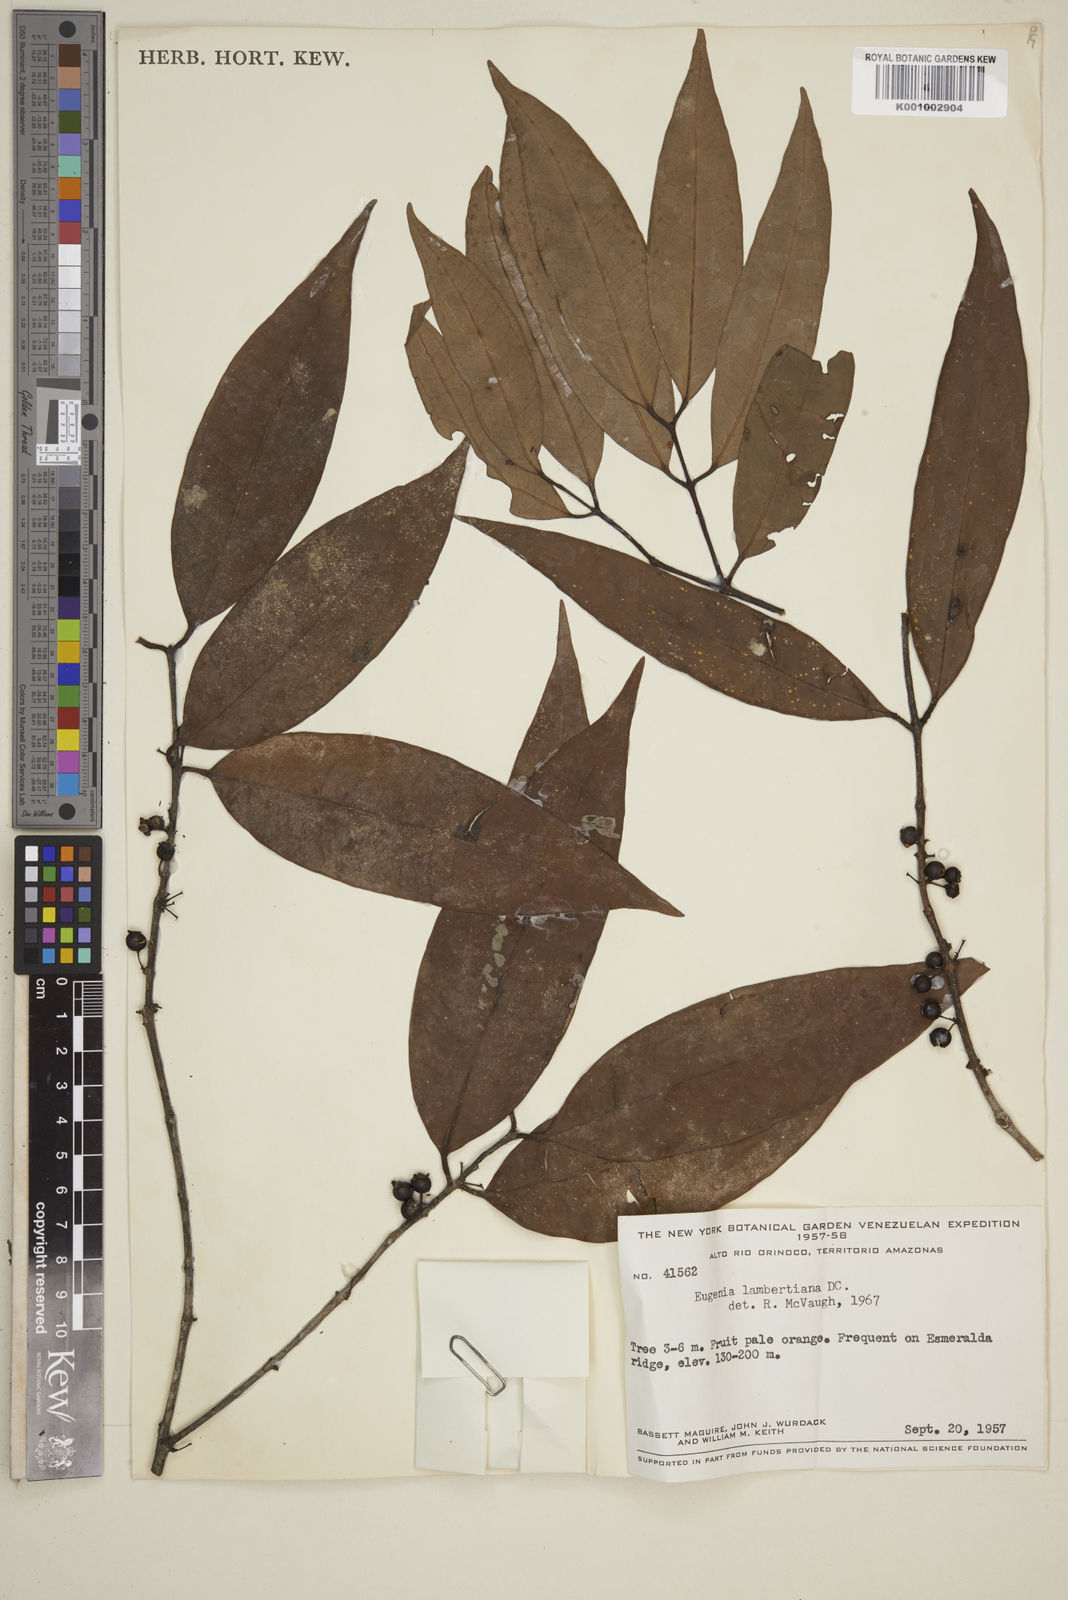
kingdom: Plantae
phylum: Tracheophyta
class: Magnoliopsida
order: Myrtales
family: Myrtaceae
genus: Eugenia
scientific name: Eugenia lambertiana
